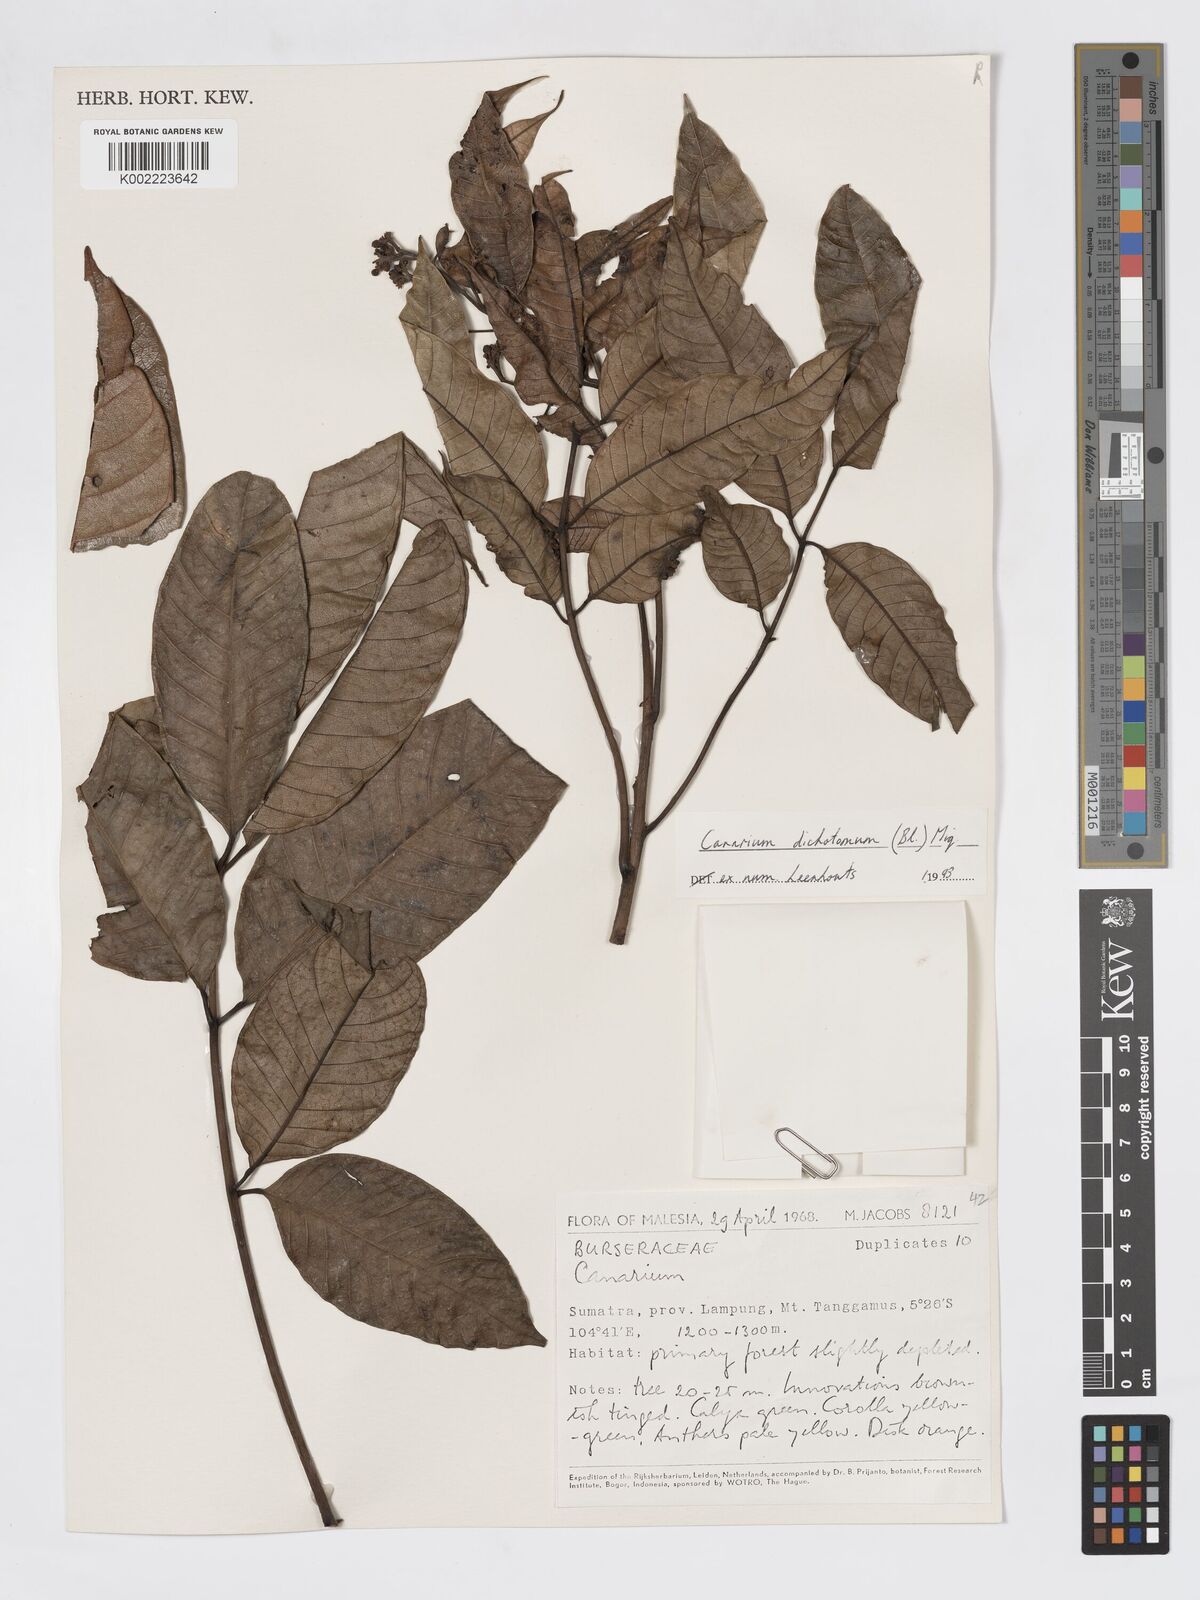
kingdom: Plantae
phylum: Tracheophyta
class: Magnoliopsida
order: Sapindales
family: Burseraceae
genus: Canarium
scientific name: Canarium dichotomum
